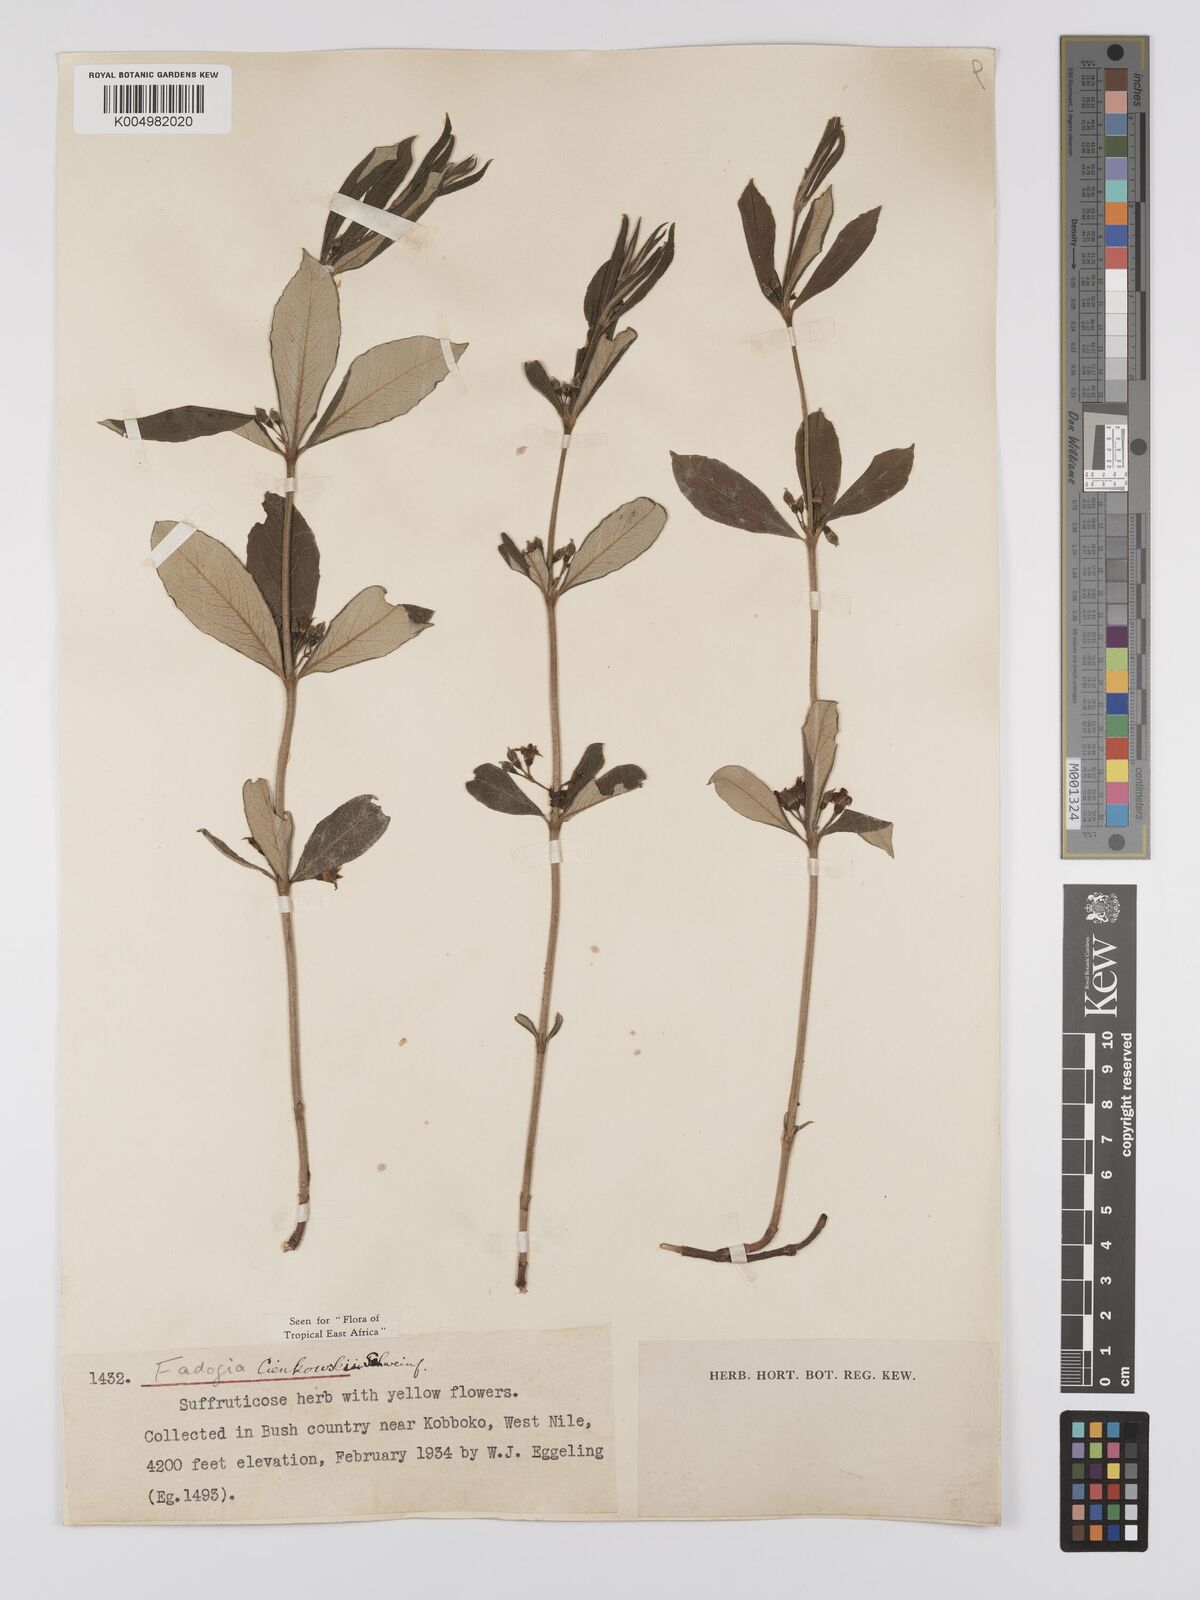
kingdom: Plantae
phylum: Tracheophyta
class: Magnoliopsida
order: Gentianales
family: Rubiaceae
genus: Fadogia
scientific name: Fadogia cienkowskii
